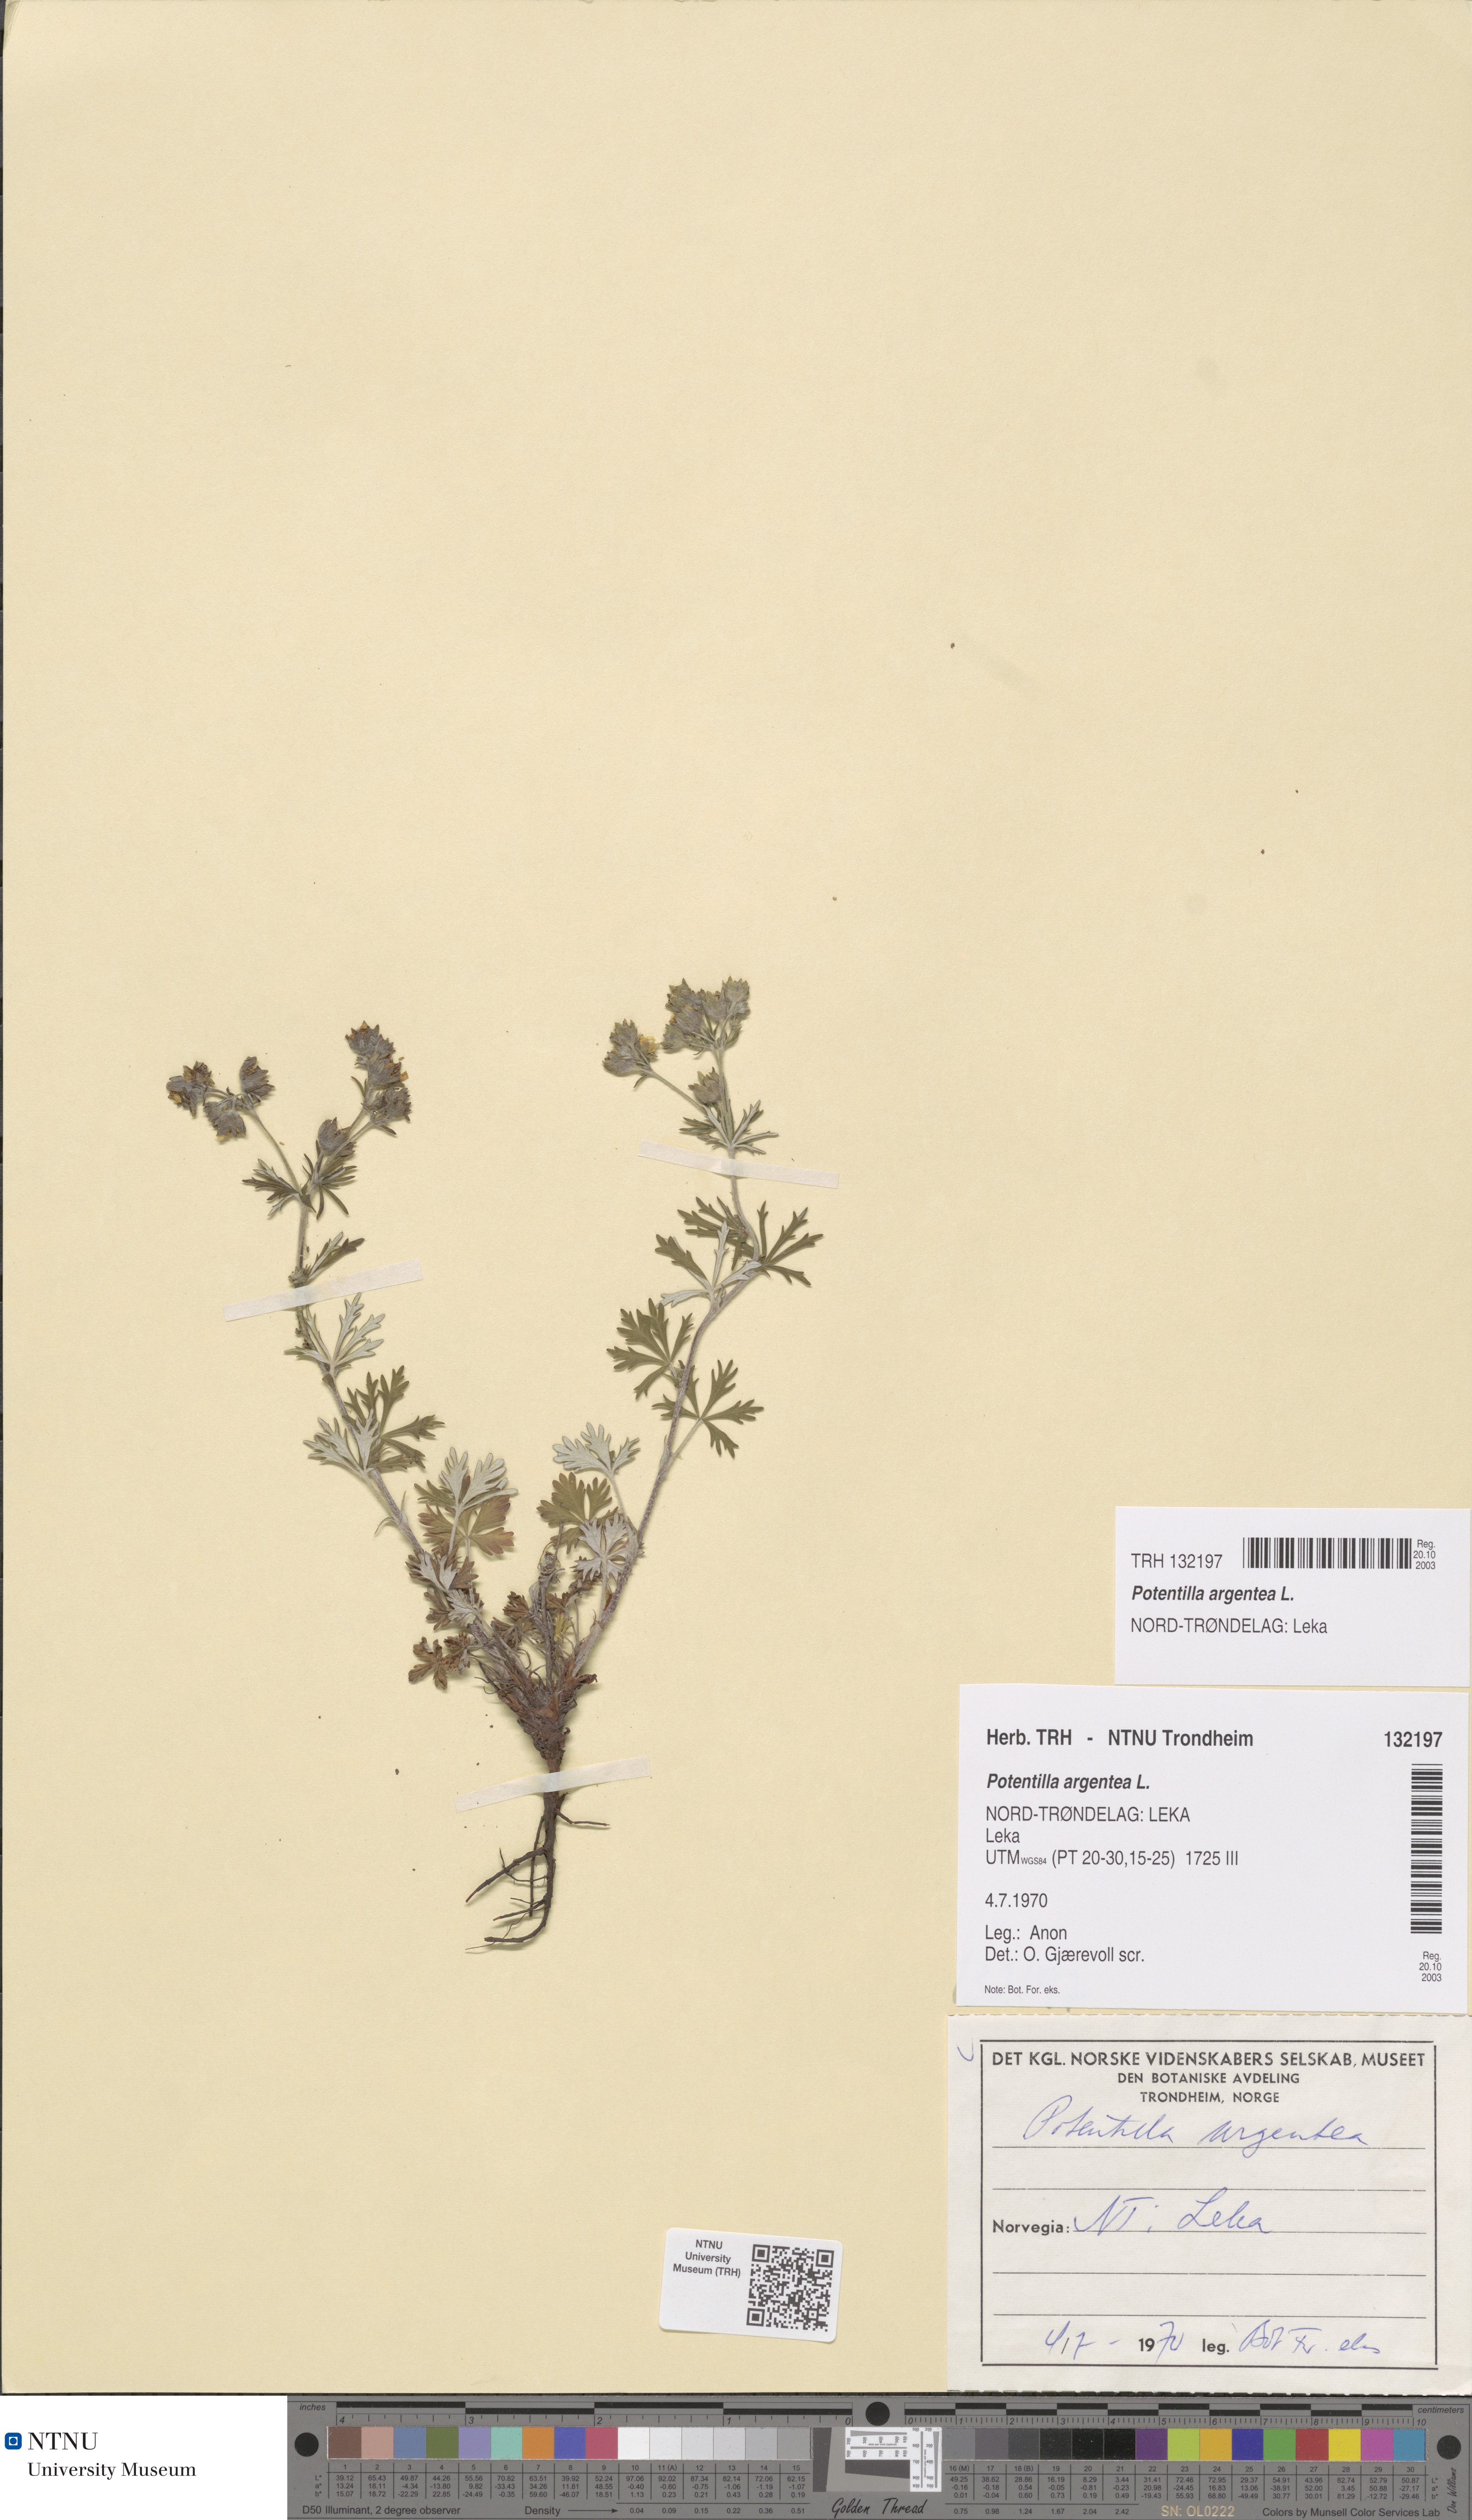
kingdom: Plantae
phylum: Tracheophyta
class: Magnoliopsida
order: Rosales
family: Rosaceae
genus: Potentilla
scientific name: Potentilla argentea
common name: Hoary cinquefoil
